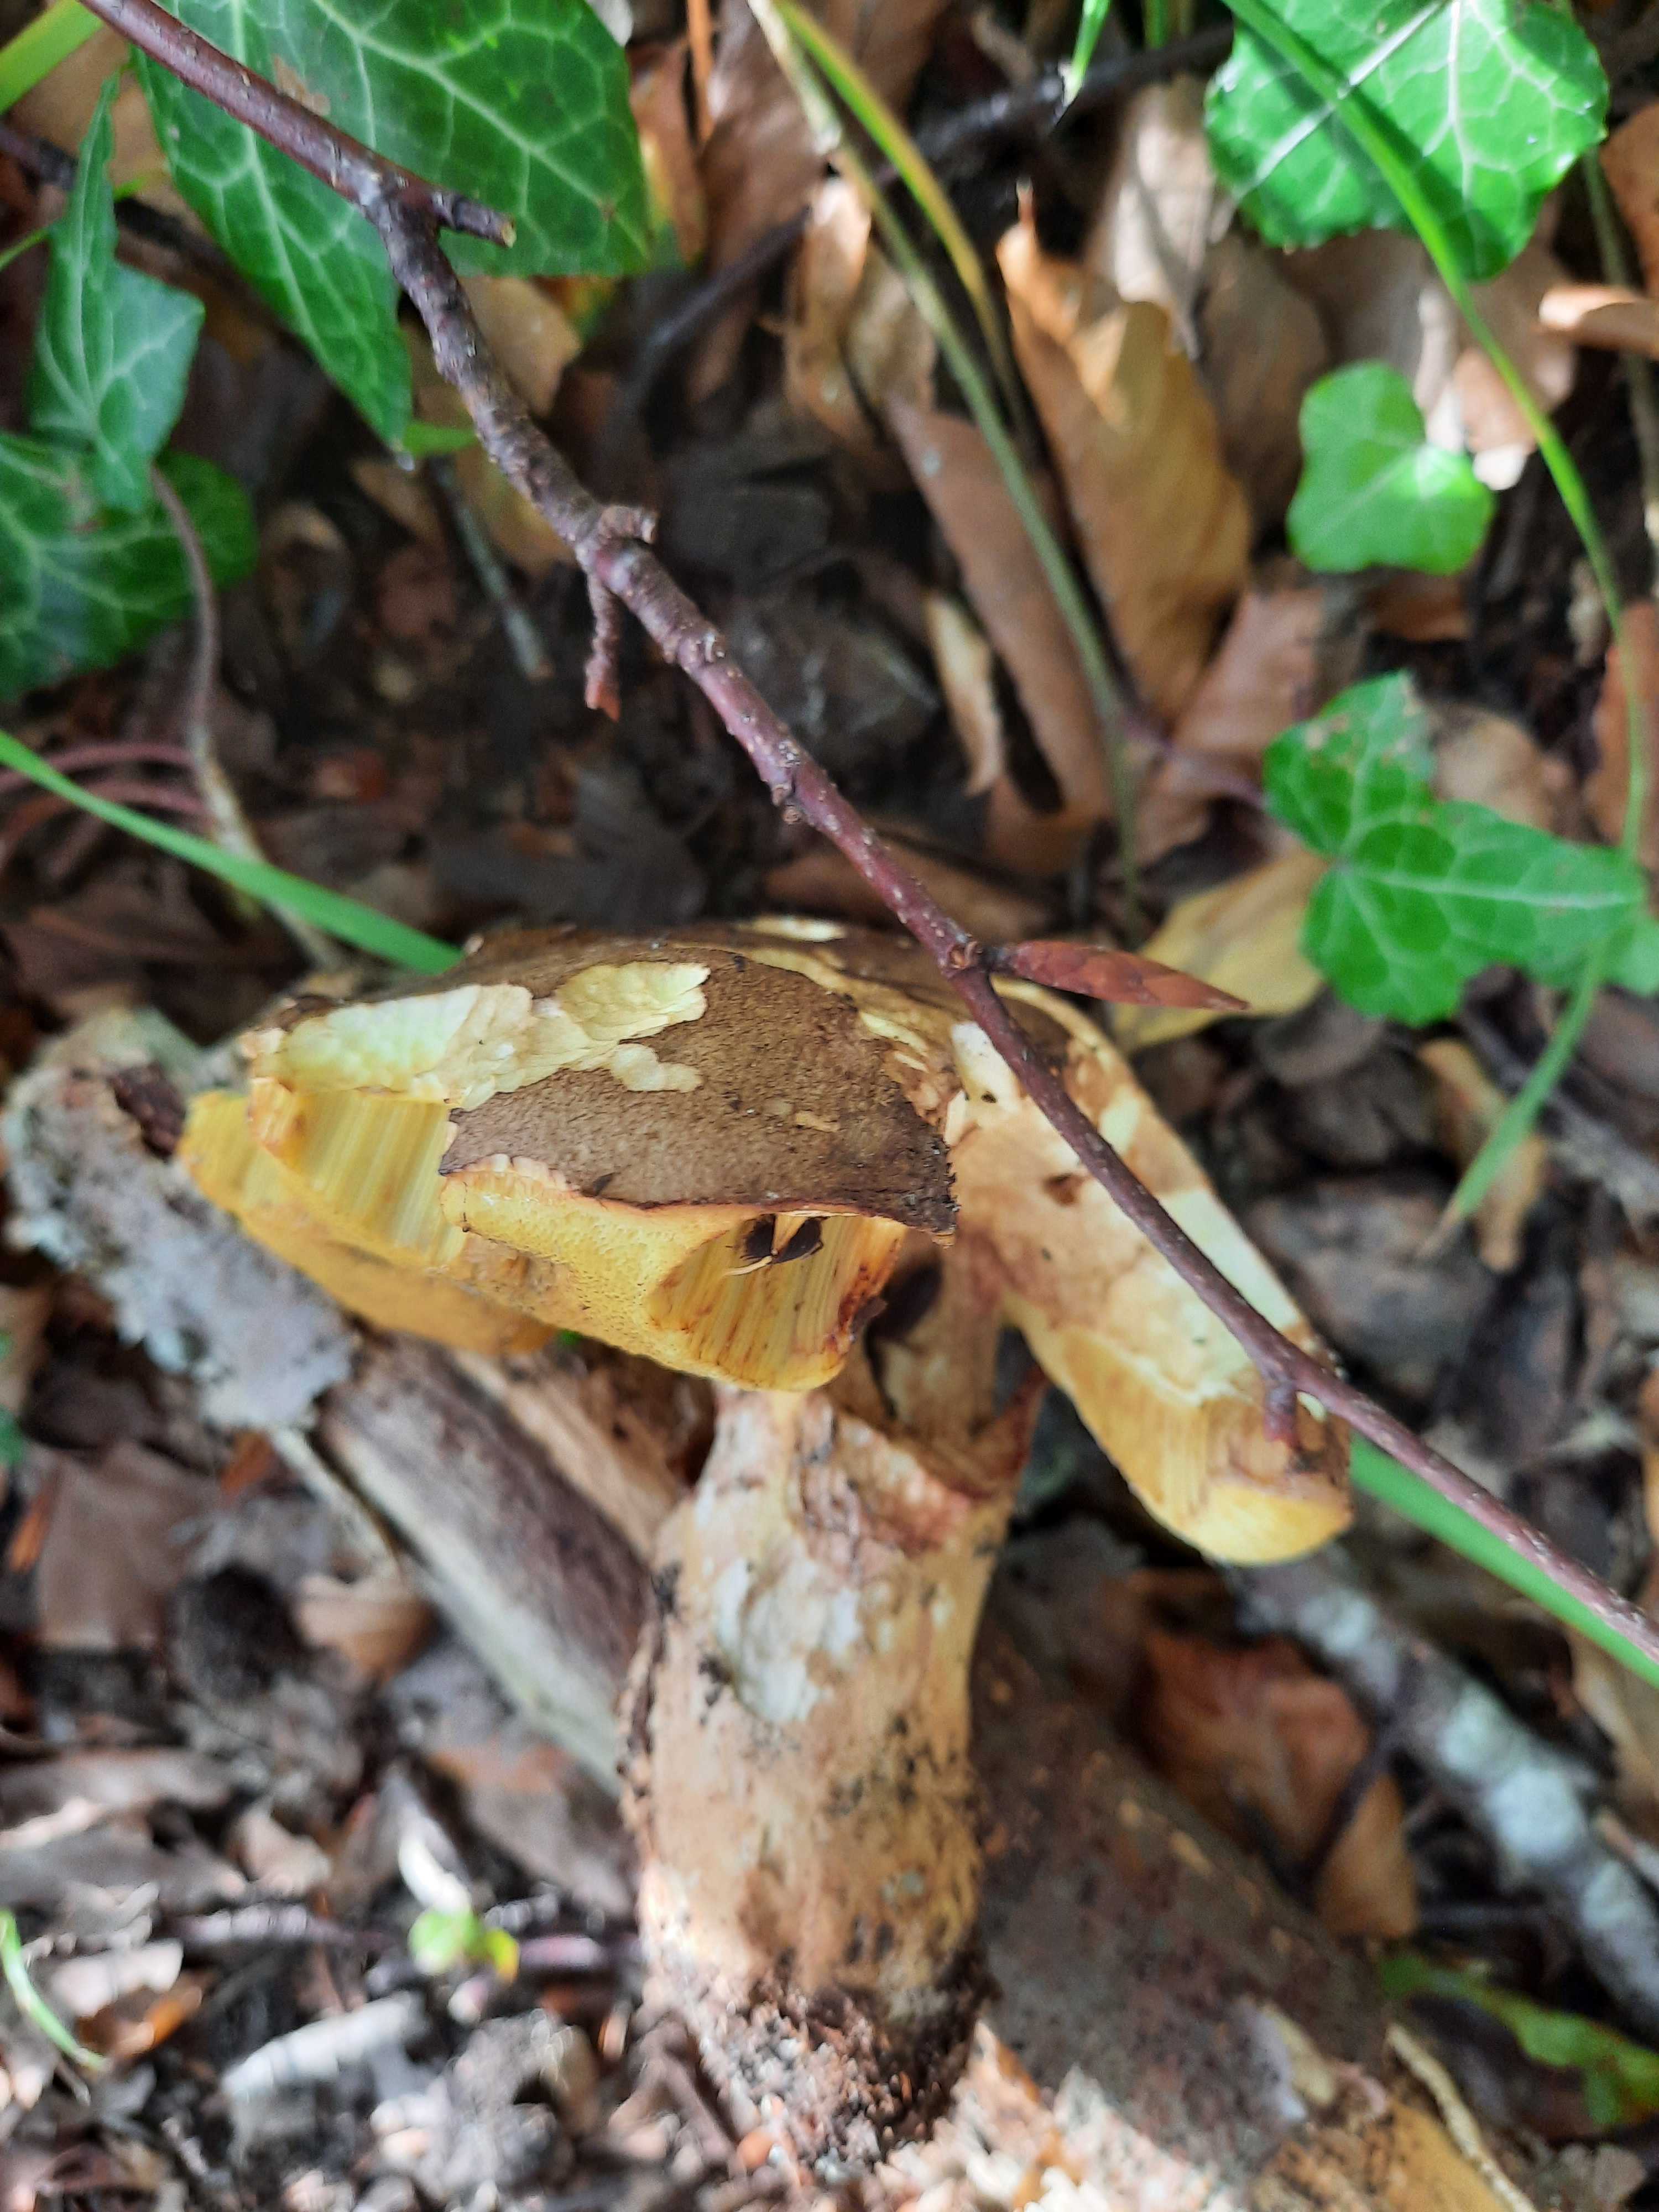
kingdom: Fungi
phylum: Basidiomycota
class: Agaricomycetes
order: Boletales
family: Boletaceae
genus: Butyriboletus
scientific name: Butyriboletus appendiculatus
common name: tenstokket rørhat
